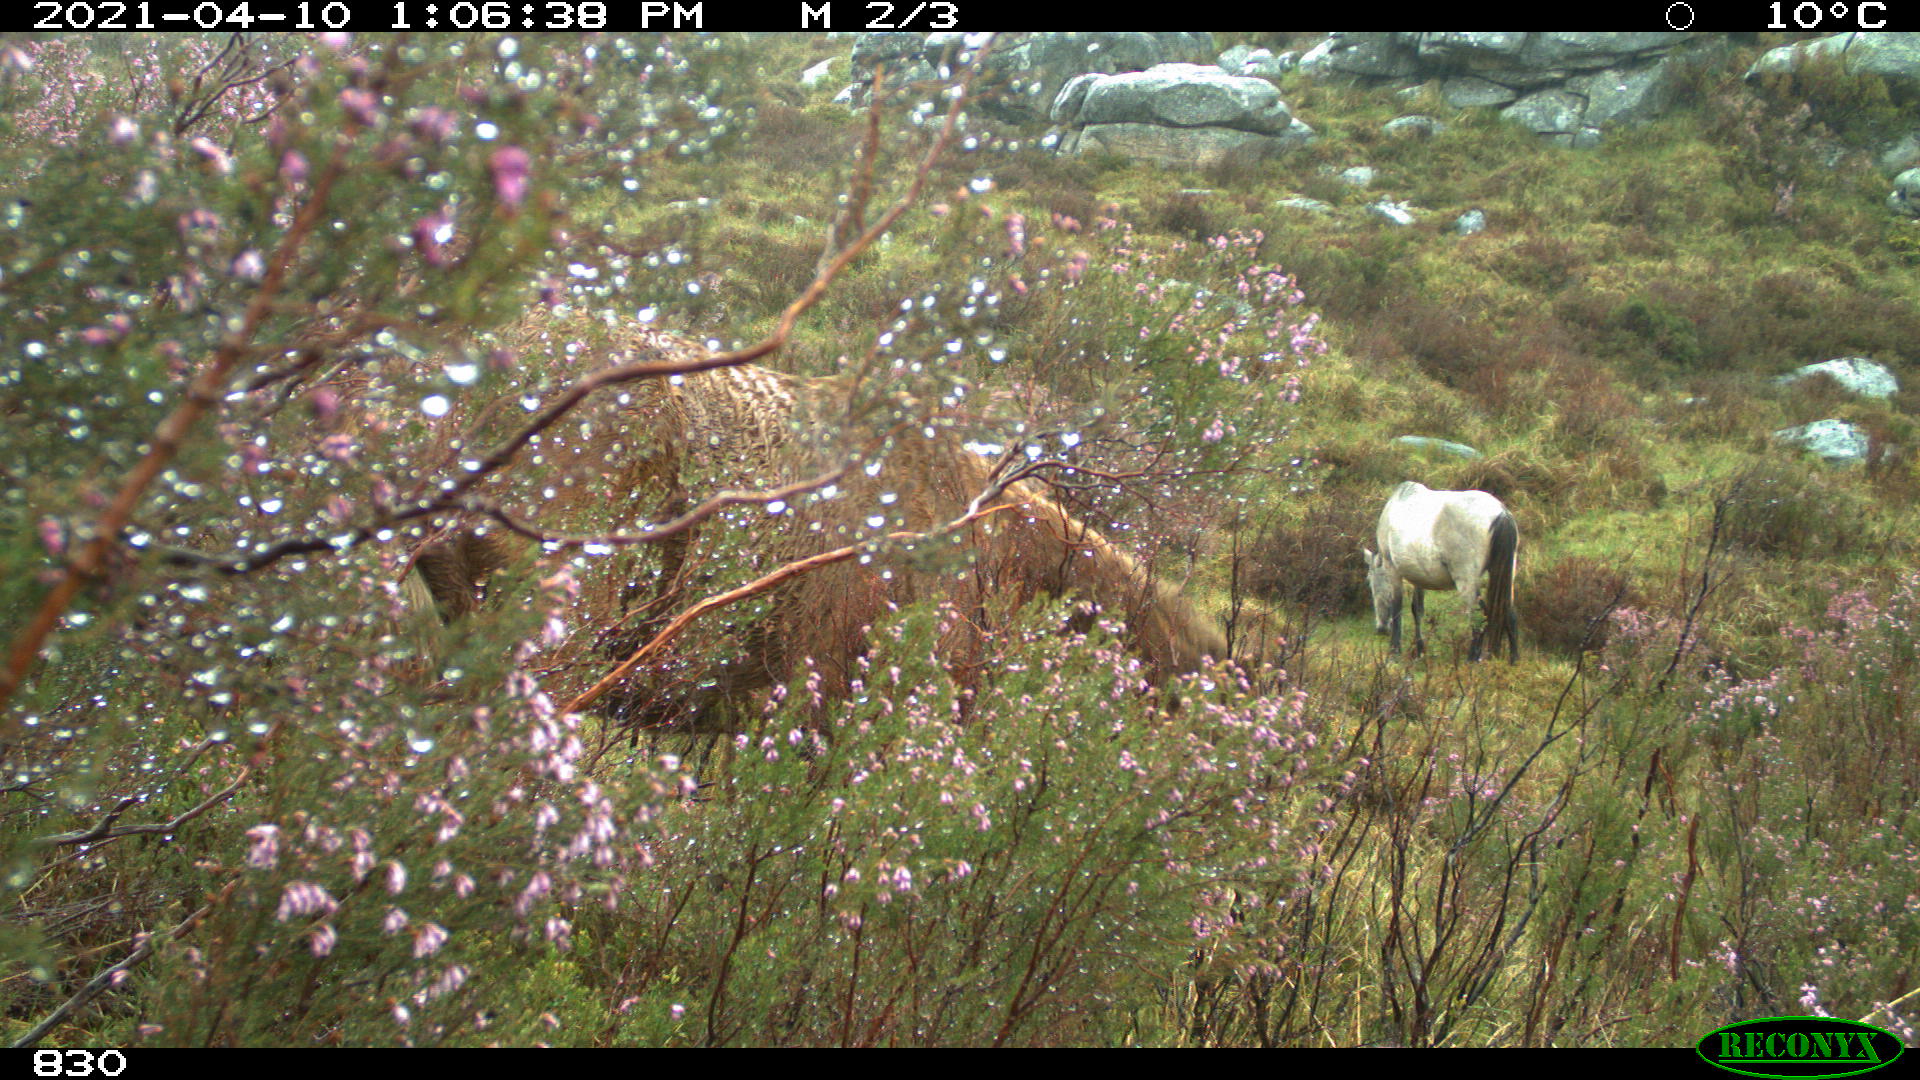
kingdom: Animalia
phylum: Chordata
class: Mammalia
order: Perissodactyla
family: Equidae
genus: Equus
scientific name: Equus caballus
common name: Horse
